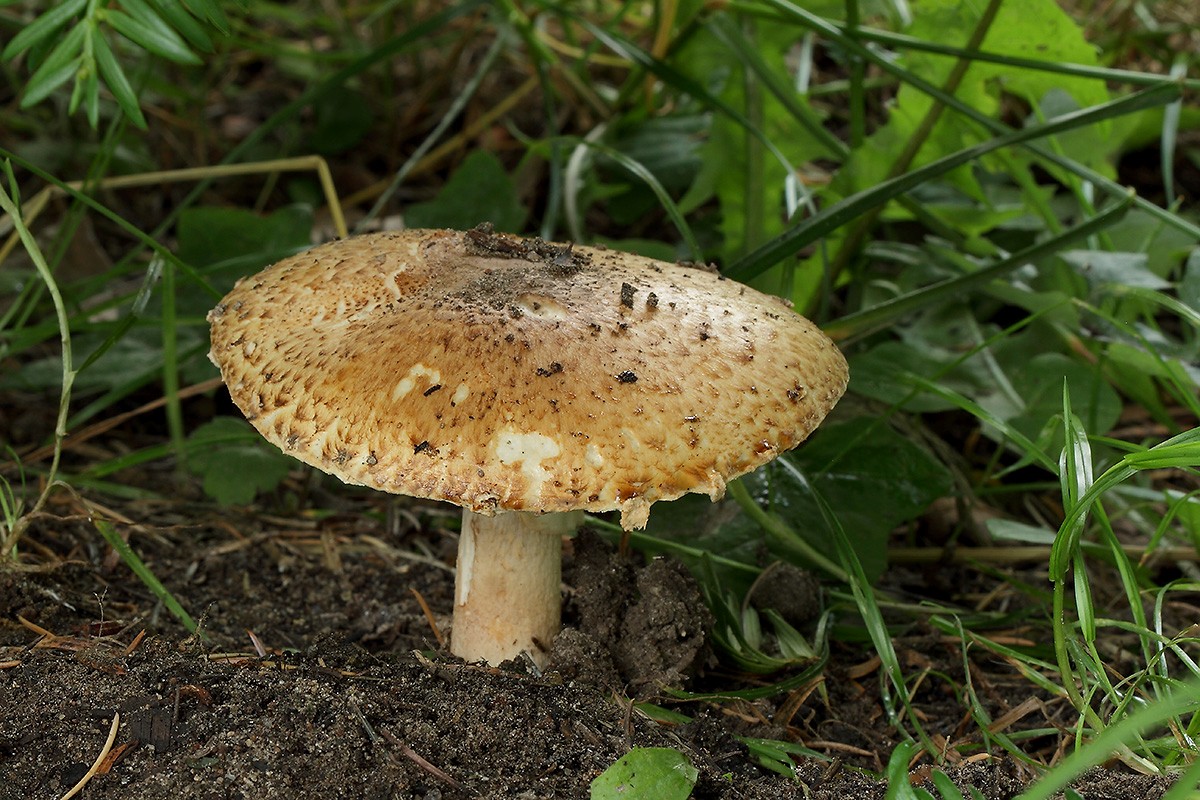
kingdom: Fungi
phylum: Basidiomycota
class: Agaricomycetes
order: Agaricales
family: Agaricaceae
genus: Agaricus
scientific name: Agaricus augustus
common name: prægtig champignon
